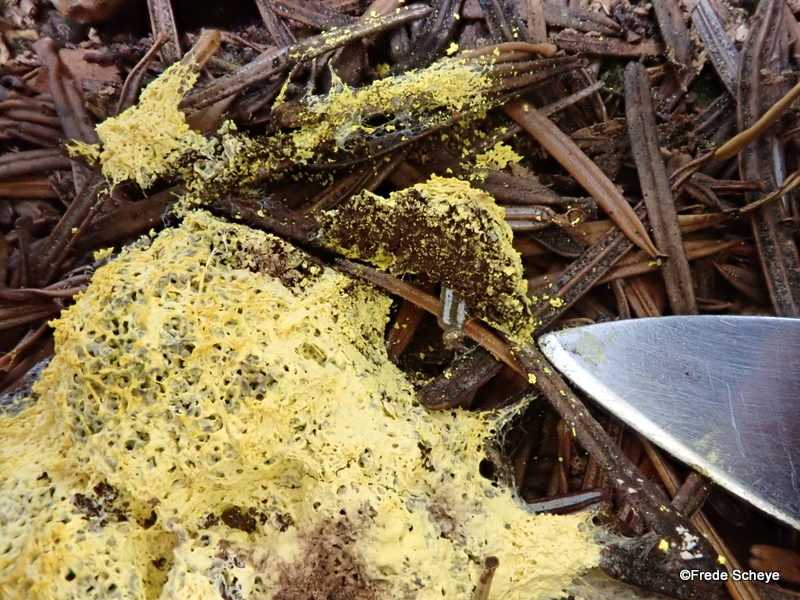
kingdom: Protozoa
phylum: Mycetozoa
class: Myxomycetes
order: Physarales
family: Physaraceae
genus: Fuligo
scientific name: Fuligo septica
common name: gul troldsmør
